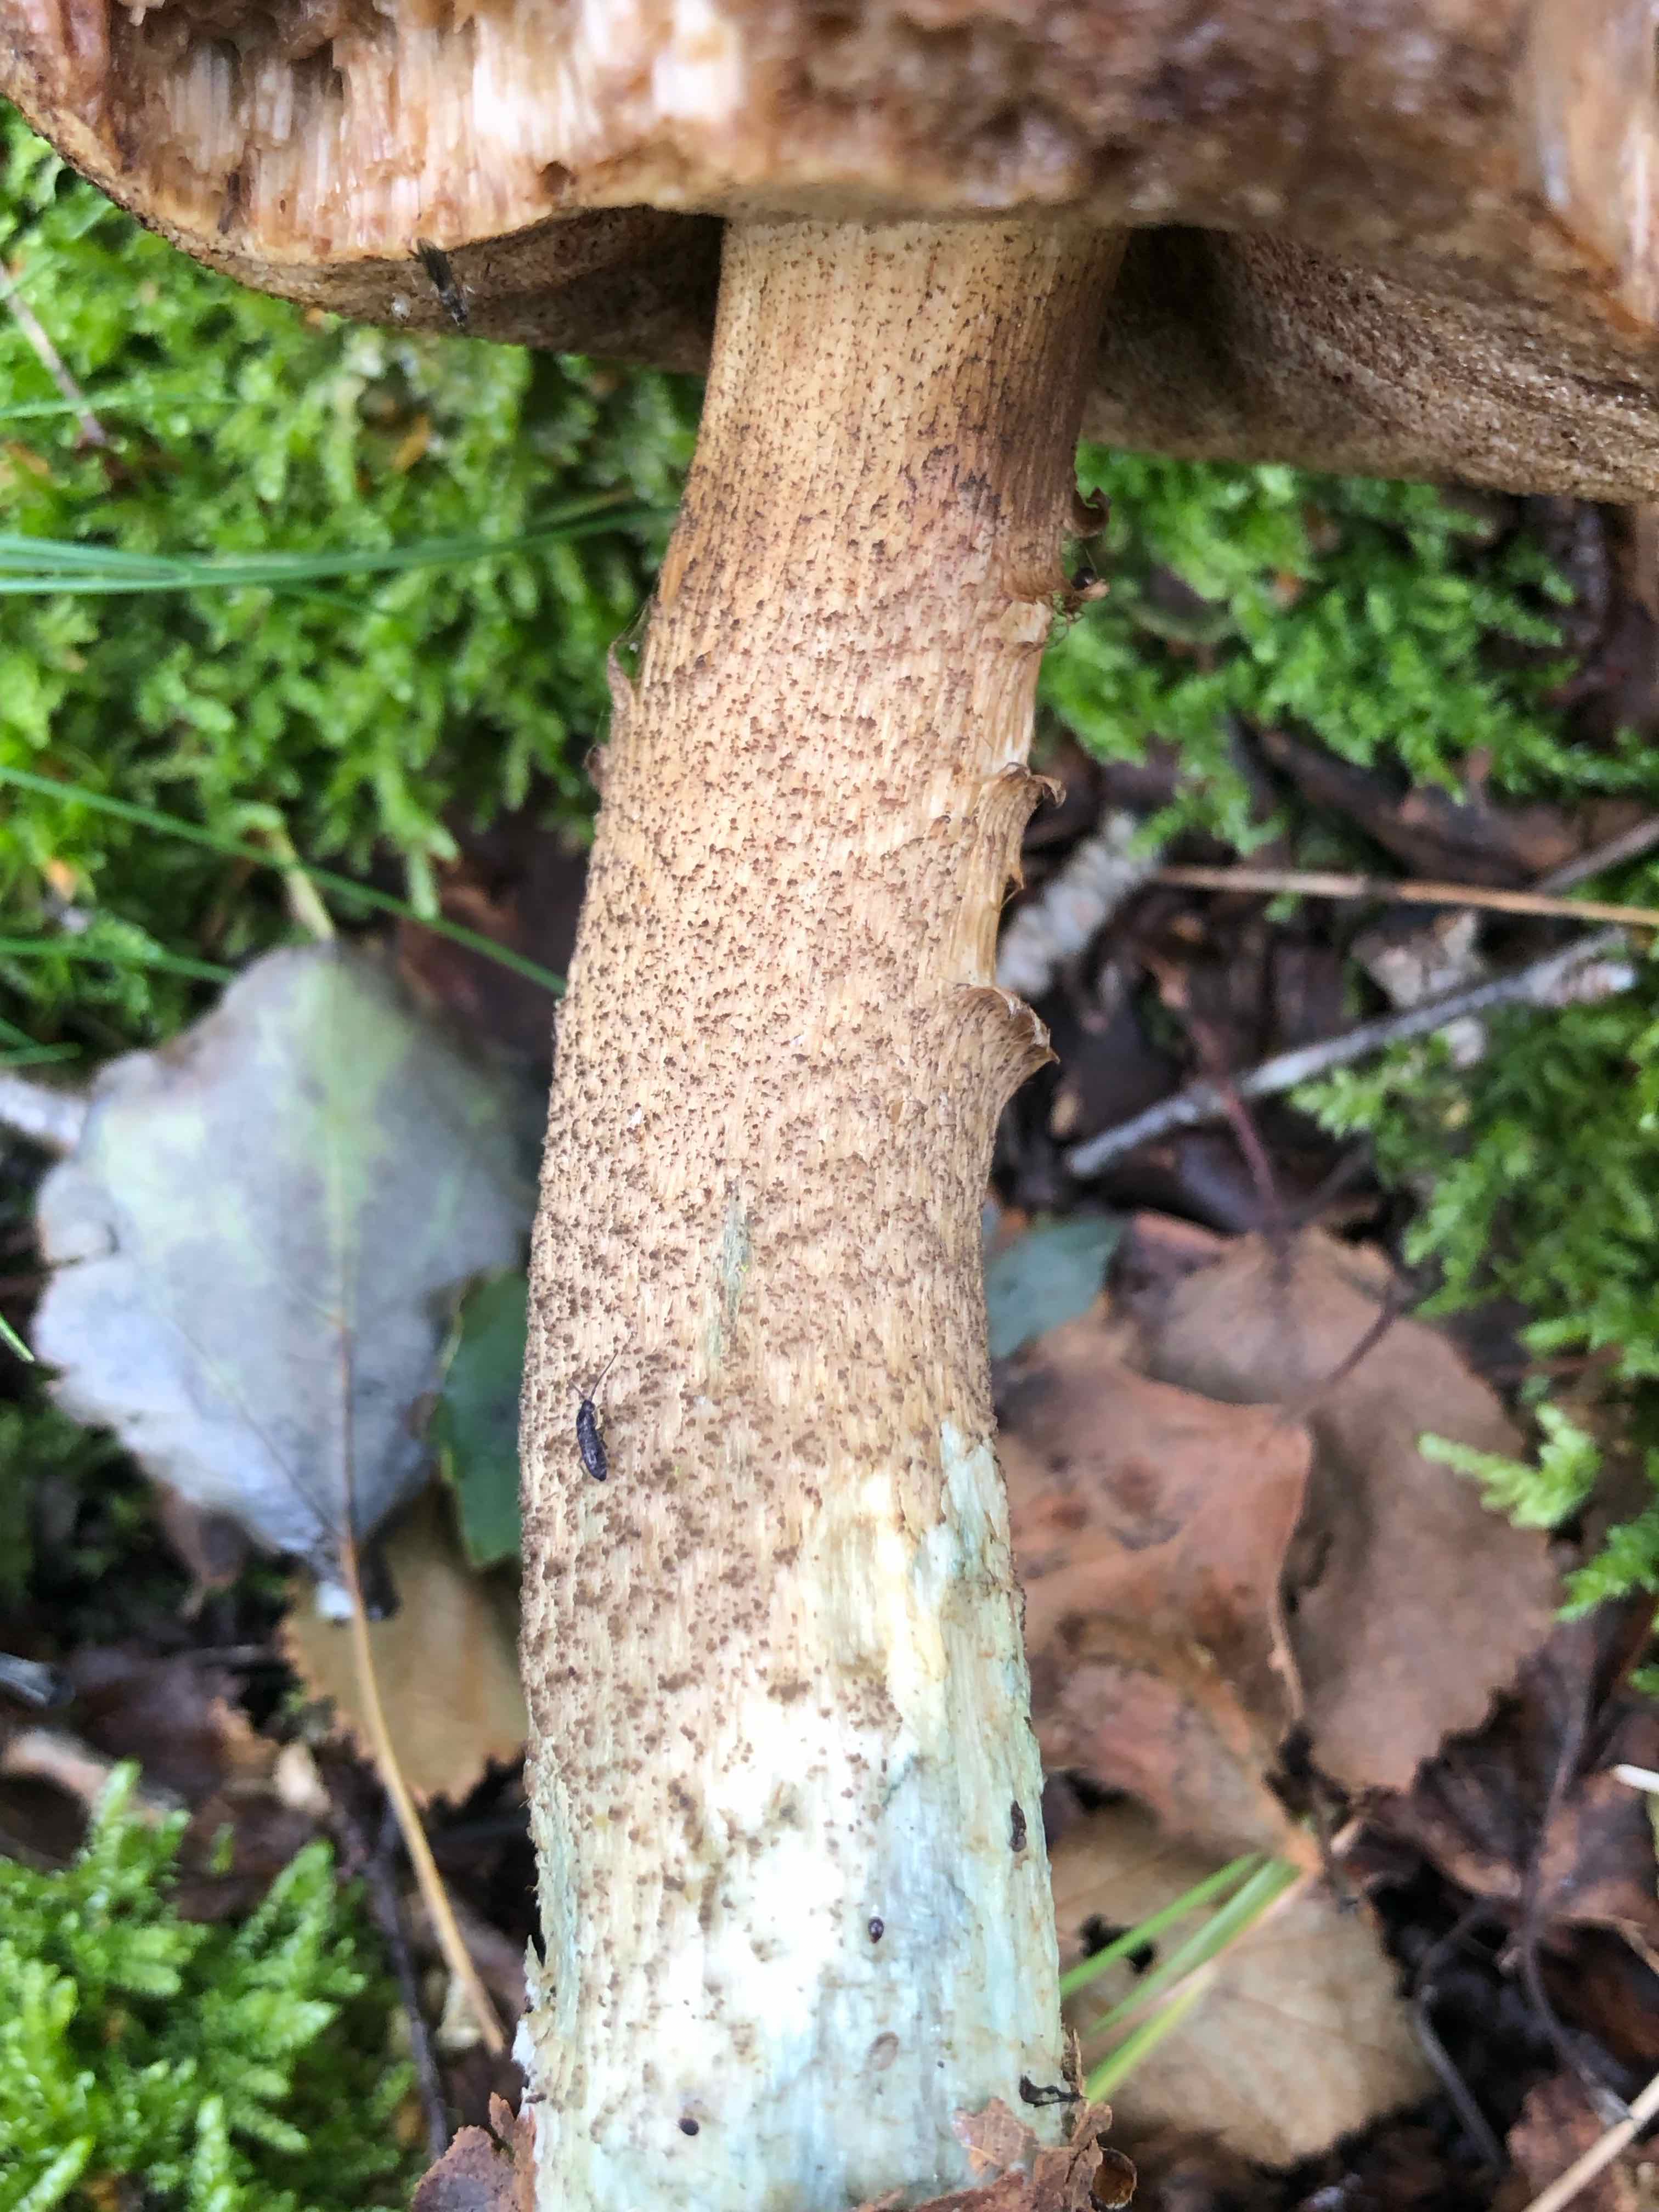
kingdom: Fungi
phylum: Basidiomycota
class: Agaricomycetes
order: Boletales
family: Boletaceae
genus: Leccinum
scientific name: Leccinum
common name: skælrørhat
